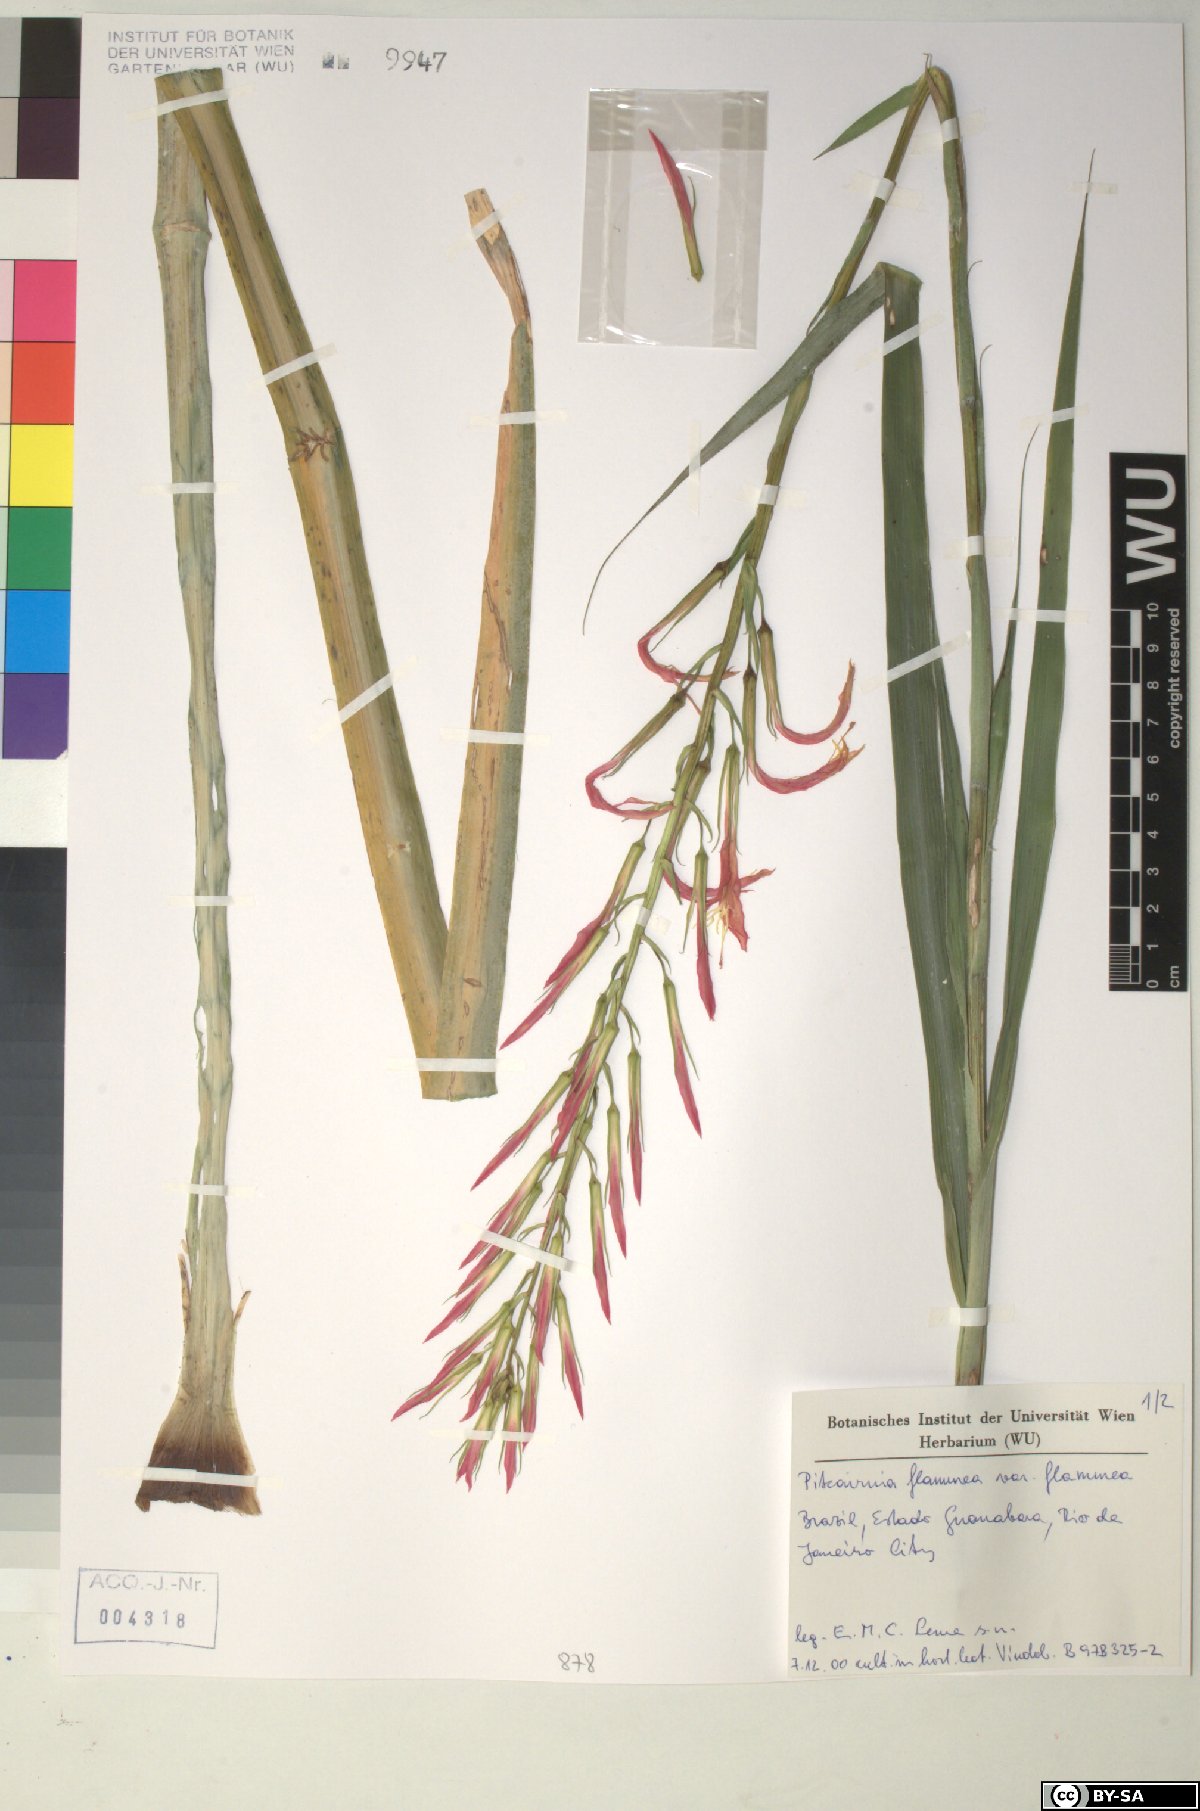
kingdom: Plantae
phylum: Tracheophyta
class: Liliopsida
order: Poales
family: Bromeliaceae
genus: Pitcairnia
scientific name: Pitcairnia
